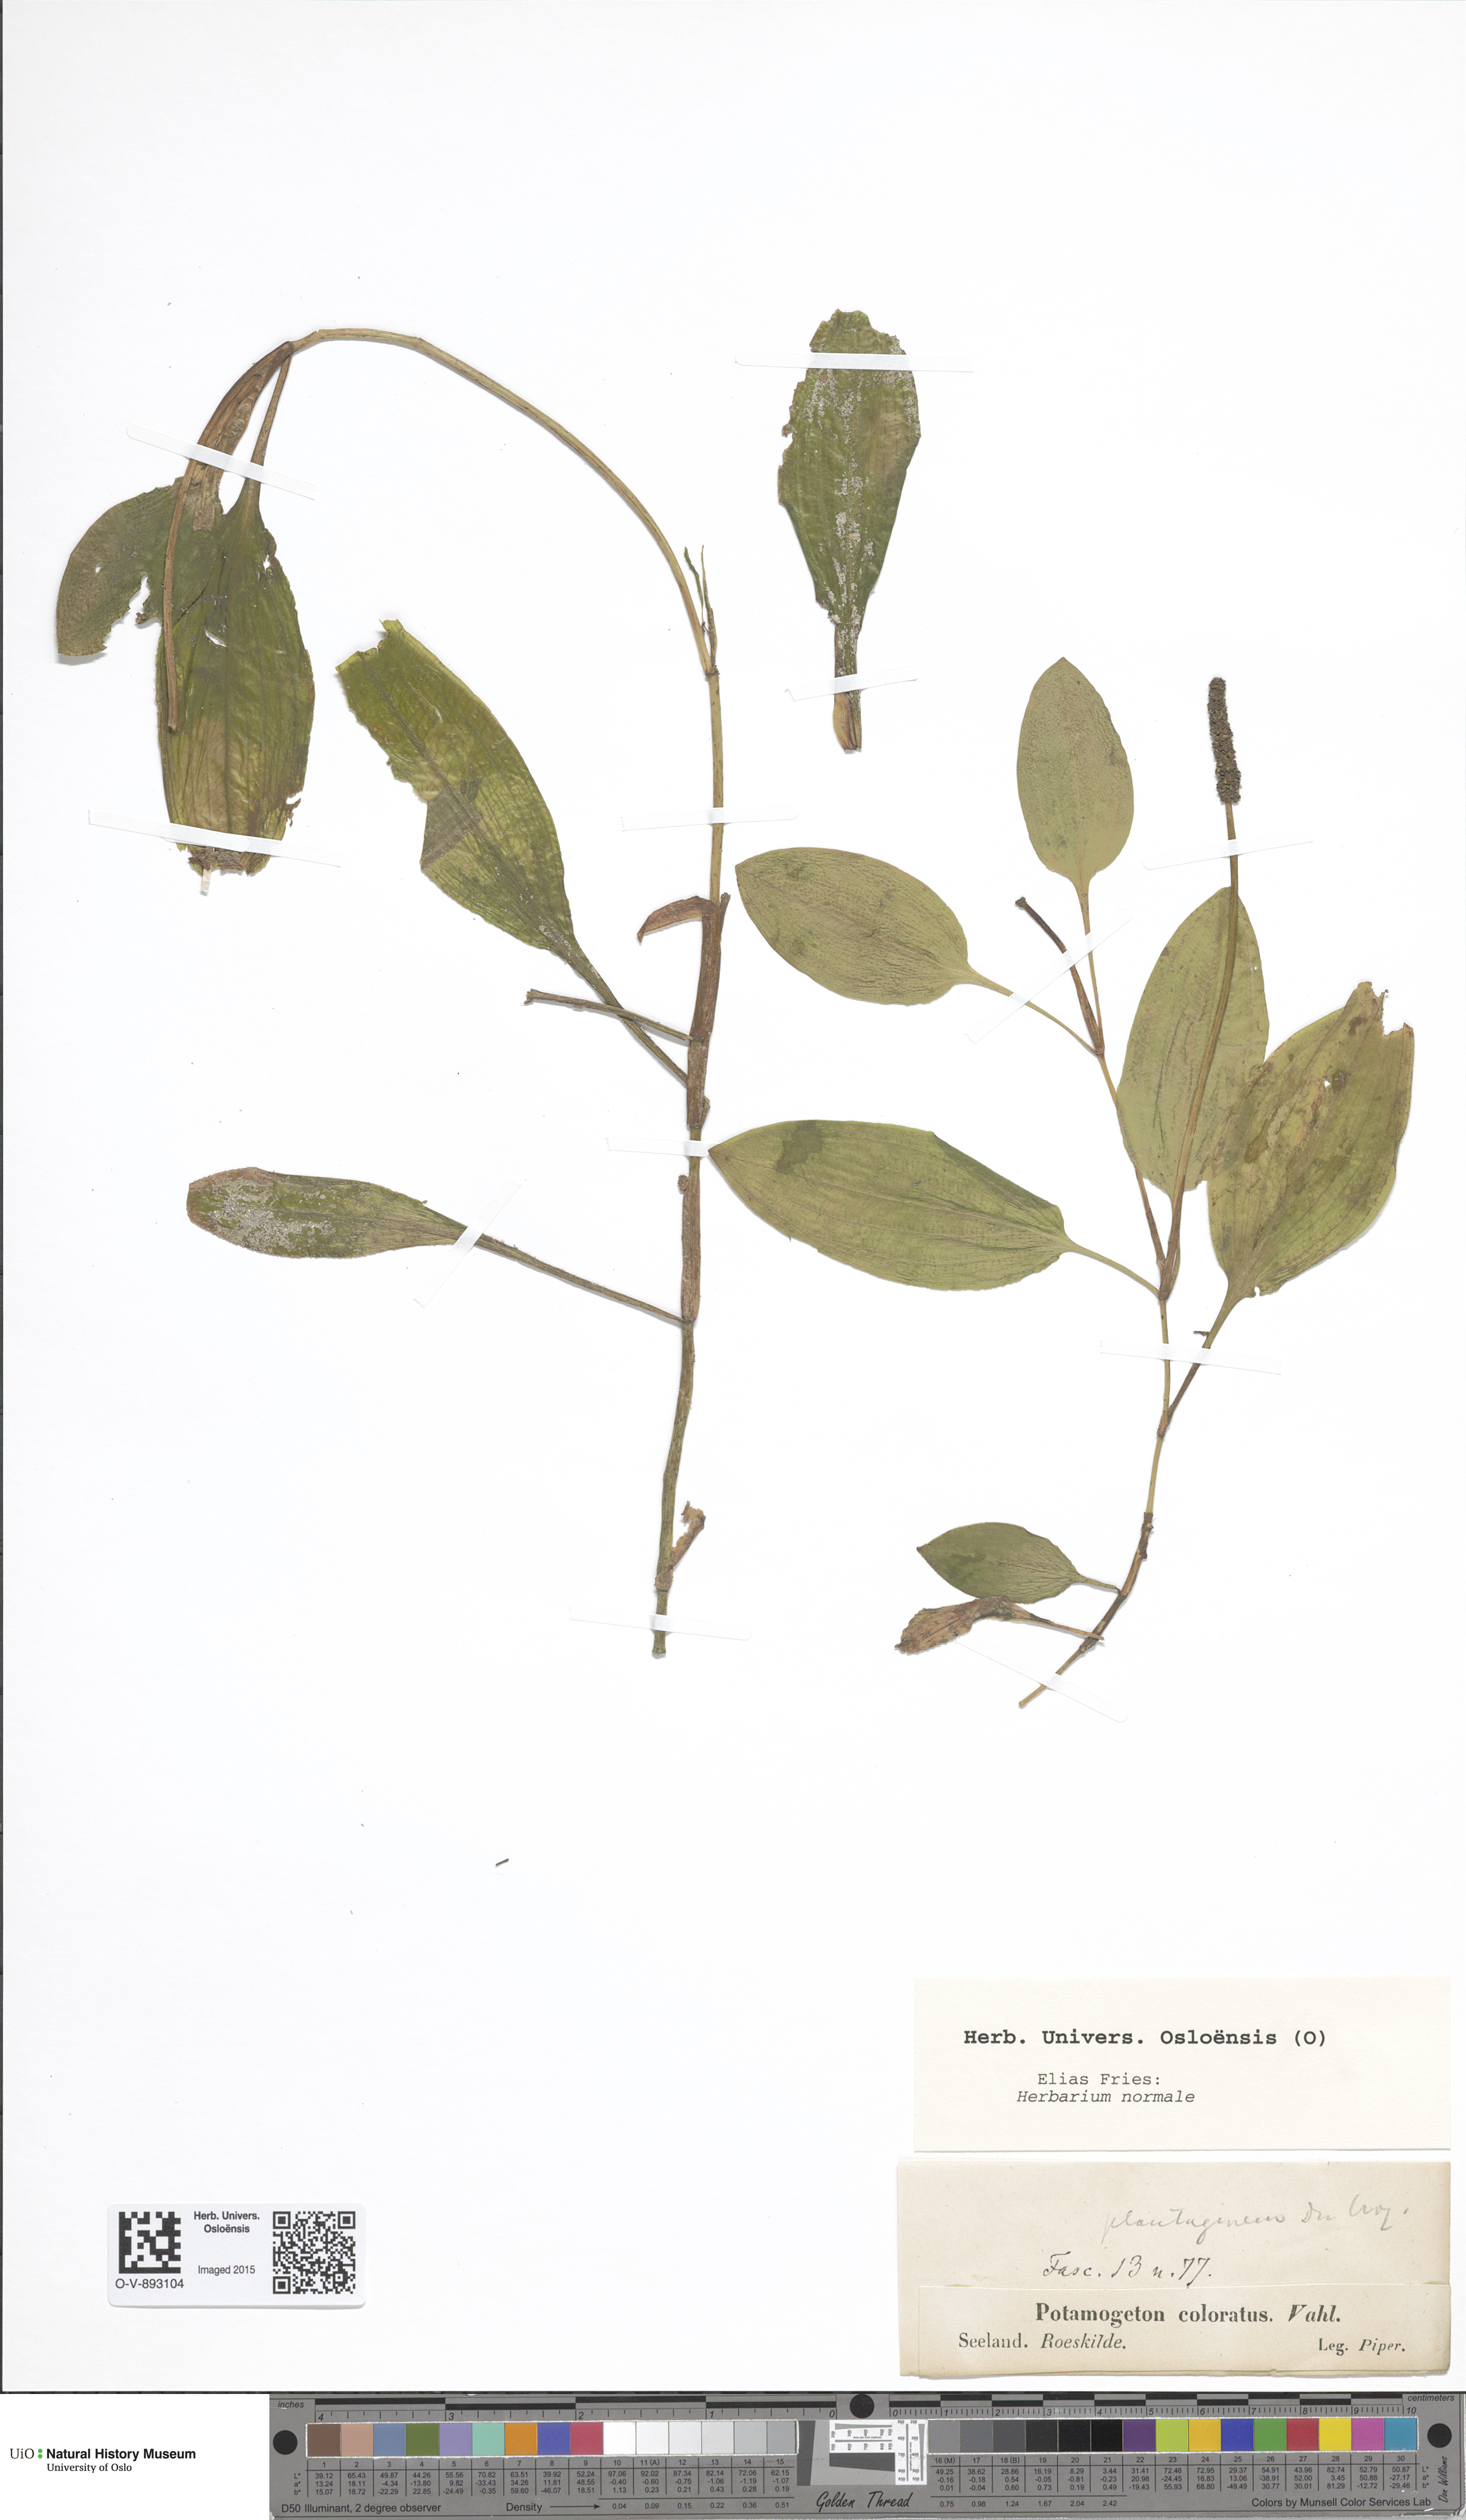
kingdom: Plantae
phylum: Tracheophyta
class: Liliopsida
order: Alismatales
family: Potamogetonaceae
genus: Potamogeton
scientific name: Potamogeton coloratus
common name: Fen pondweed
